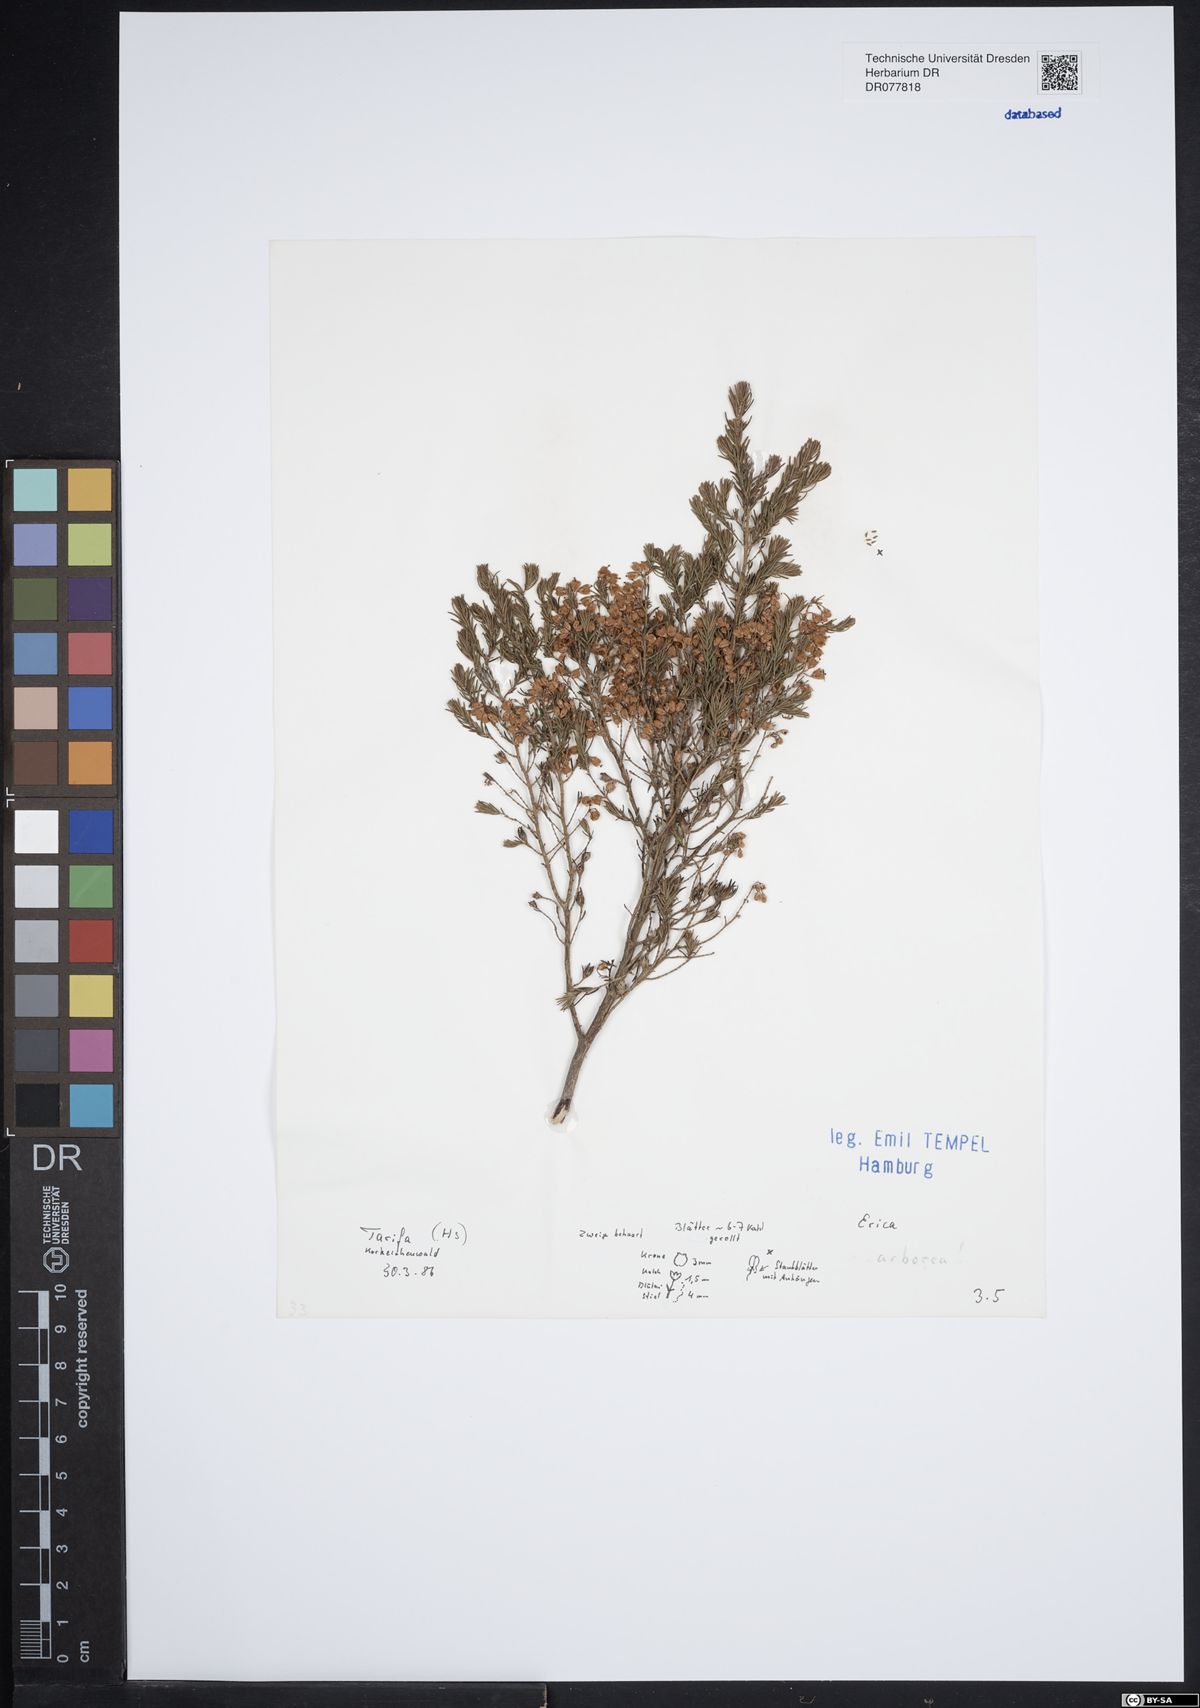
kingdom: Plantae
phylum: Tracheophyta
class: Magnoliopsida
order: Ericales
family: Ericaceae
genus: Erica
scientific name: Erica arborea
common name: Tree heath
